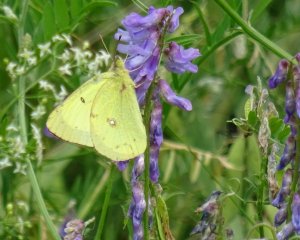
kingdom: Animalia
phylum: Arthropoda
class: Insecta
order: Lepidoptera
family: Pieridae
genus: Colias
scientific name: Colias philodice
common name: Clouded Sulphur
